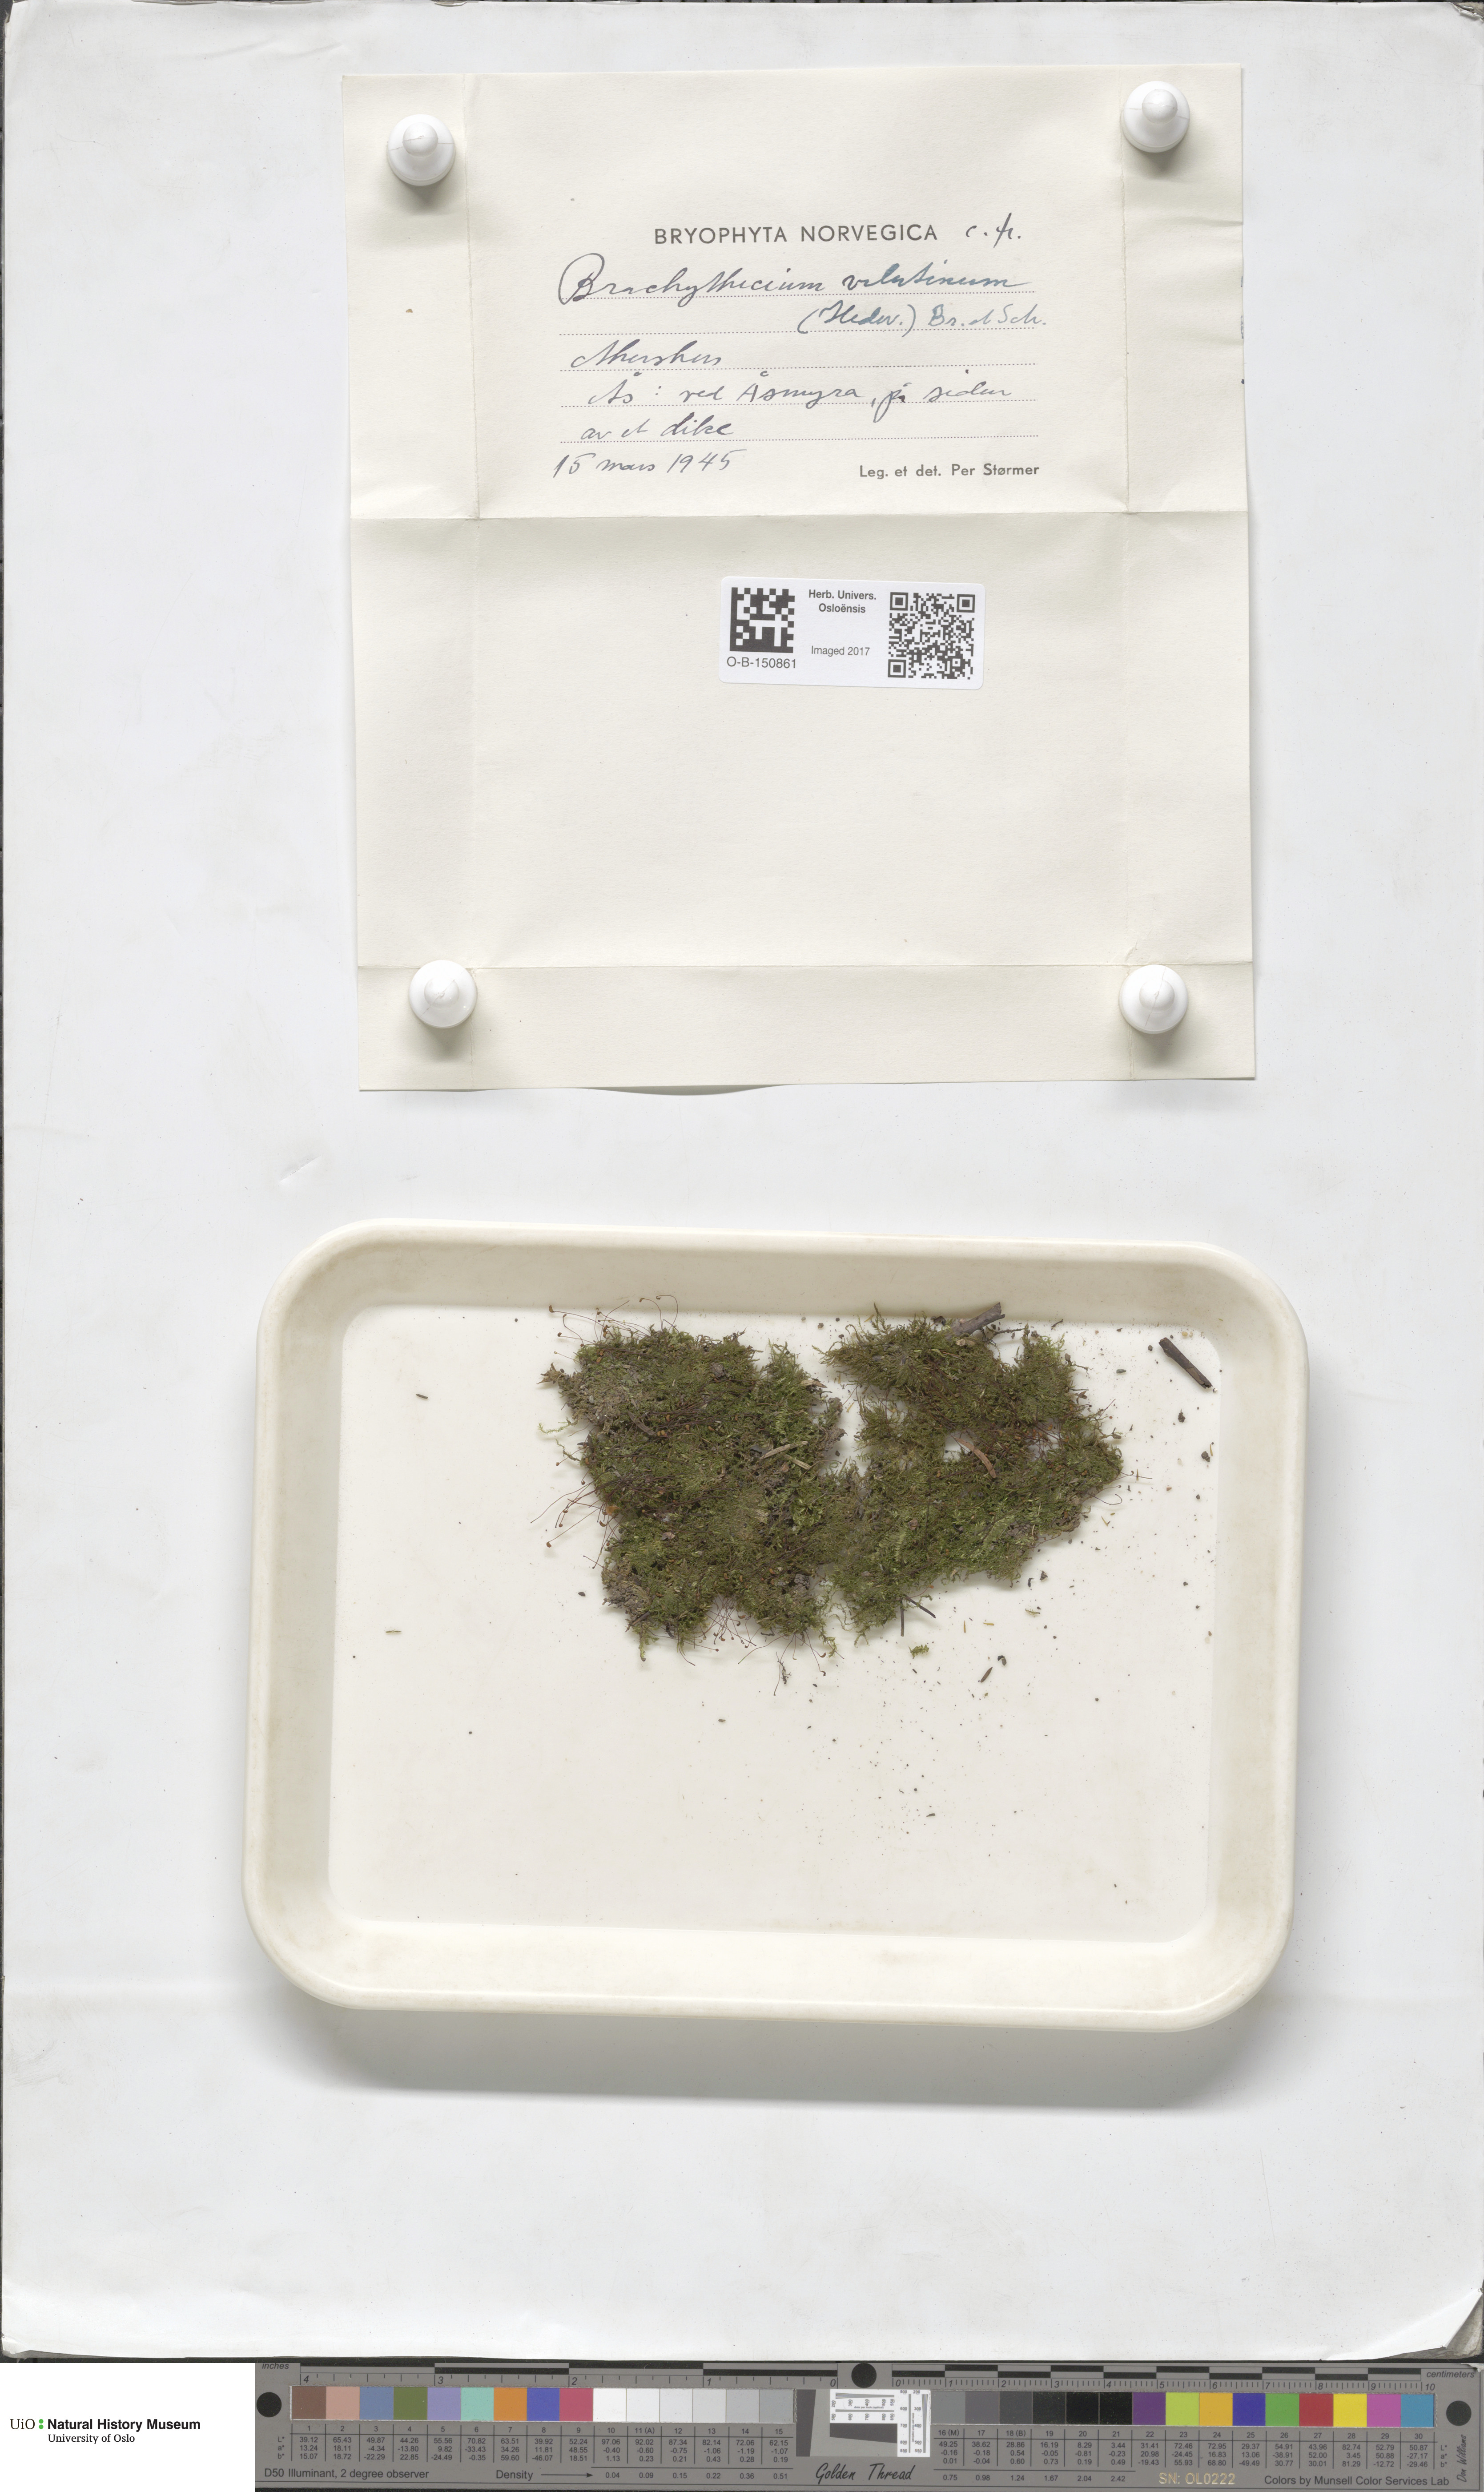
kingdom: Plantae
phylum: Bryophyta
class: Bryopsida
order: Hypnales
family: Brachytheciaceae
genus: Brachytheciastrum
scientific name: Brachytheciastrum velutinum
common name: Velvet feather-moss
